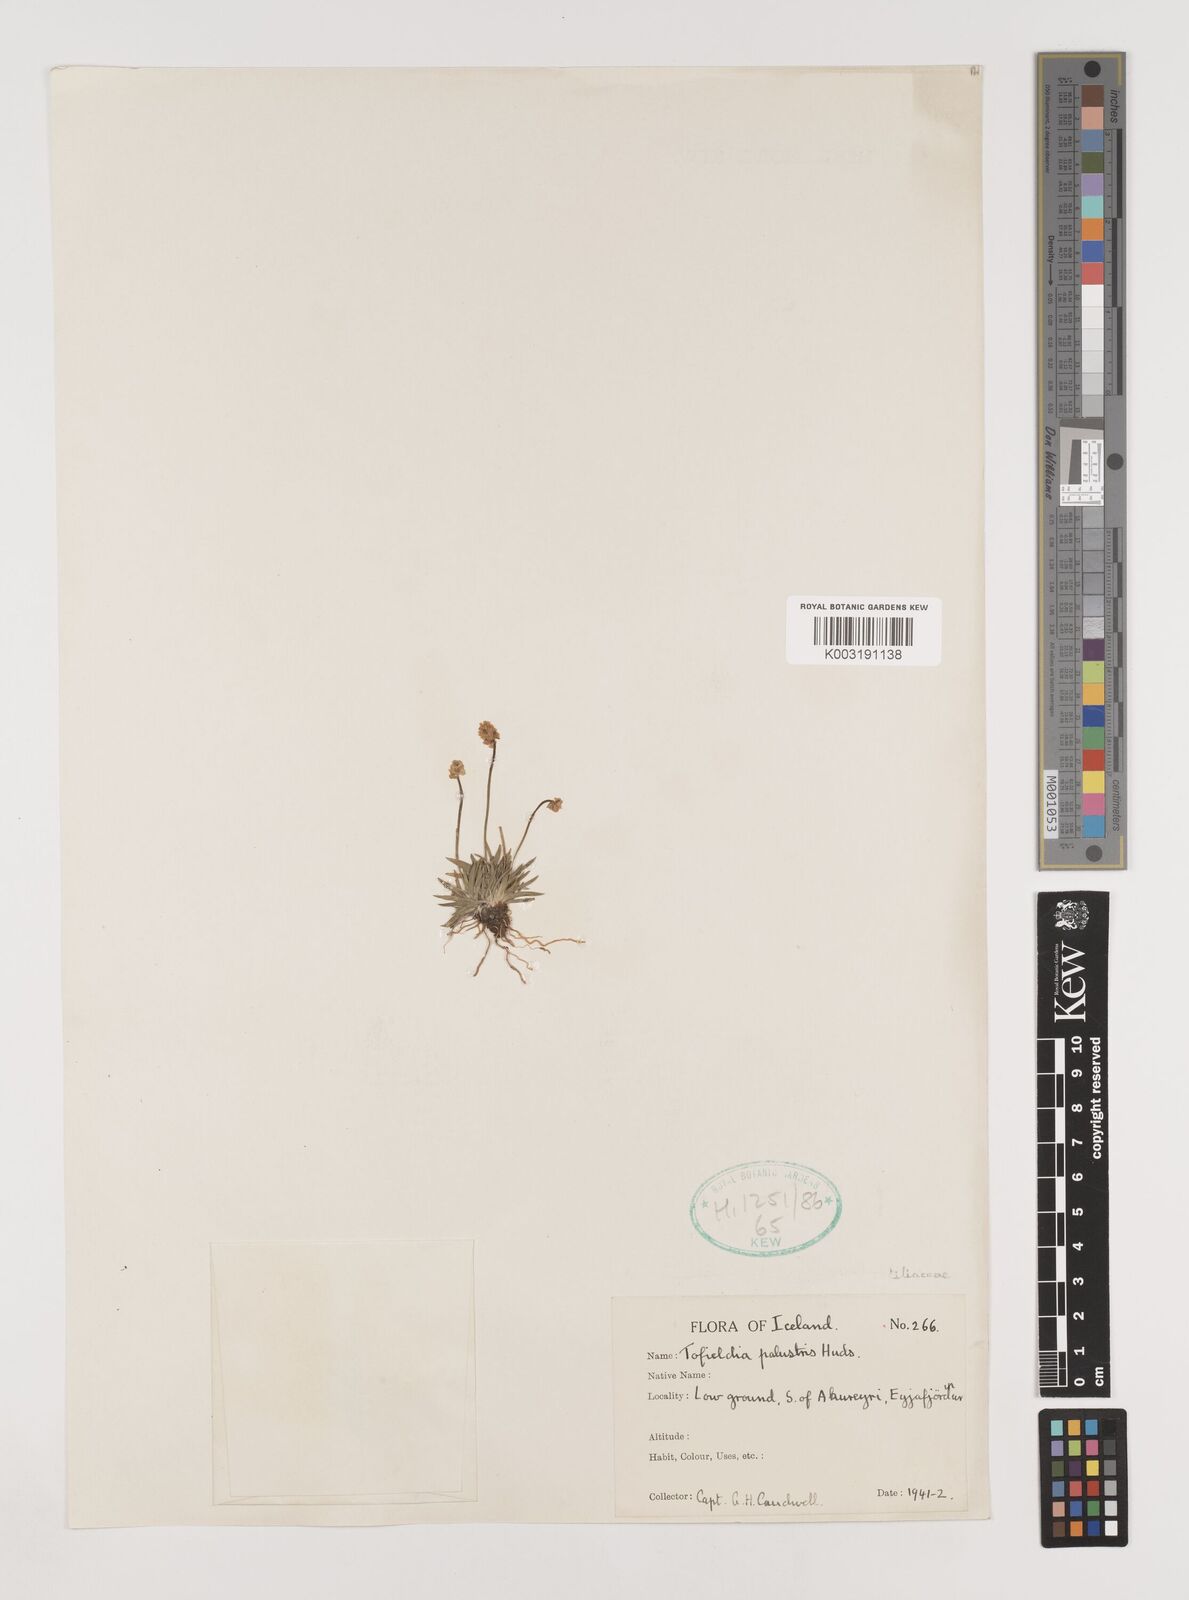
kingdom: Plantae
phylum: Tracheophyta
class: Liliopsida
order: Alismatales
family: Tofieldiaceae
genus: Tofieldia
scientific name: Tofieldia pusilla
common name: Scottish false asphodel
